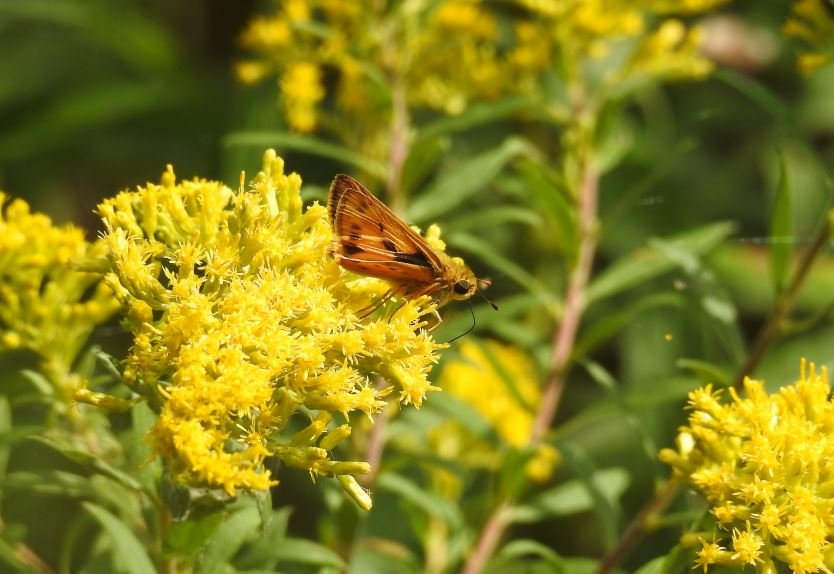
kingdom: Animalia
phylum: Arthropoda
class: Insecta
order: Lepidoptera
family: Hesperiidae
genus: Hylephila
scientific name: Hylephila phyleus
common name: Fiery Skipper
